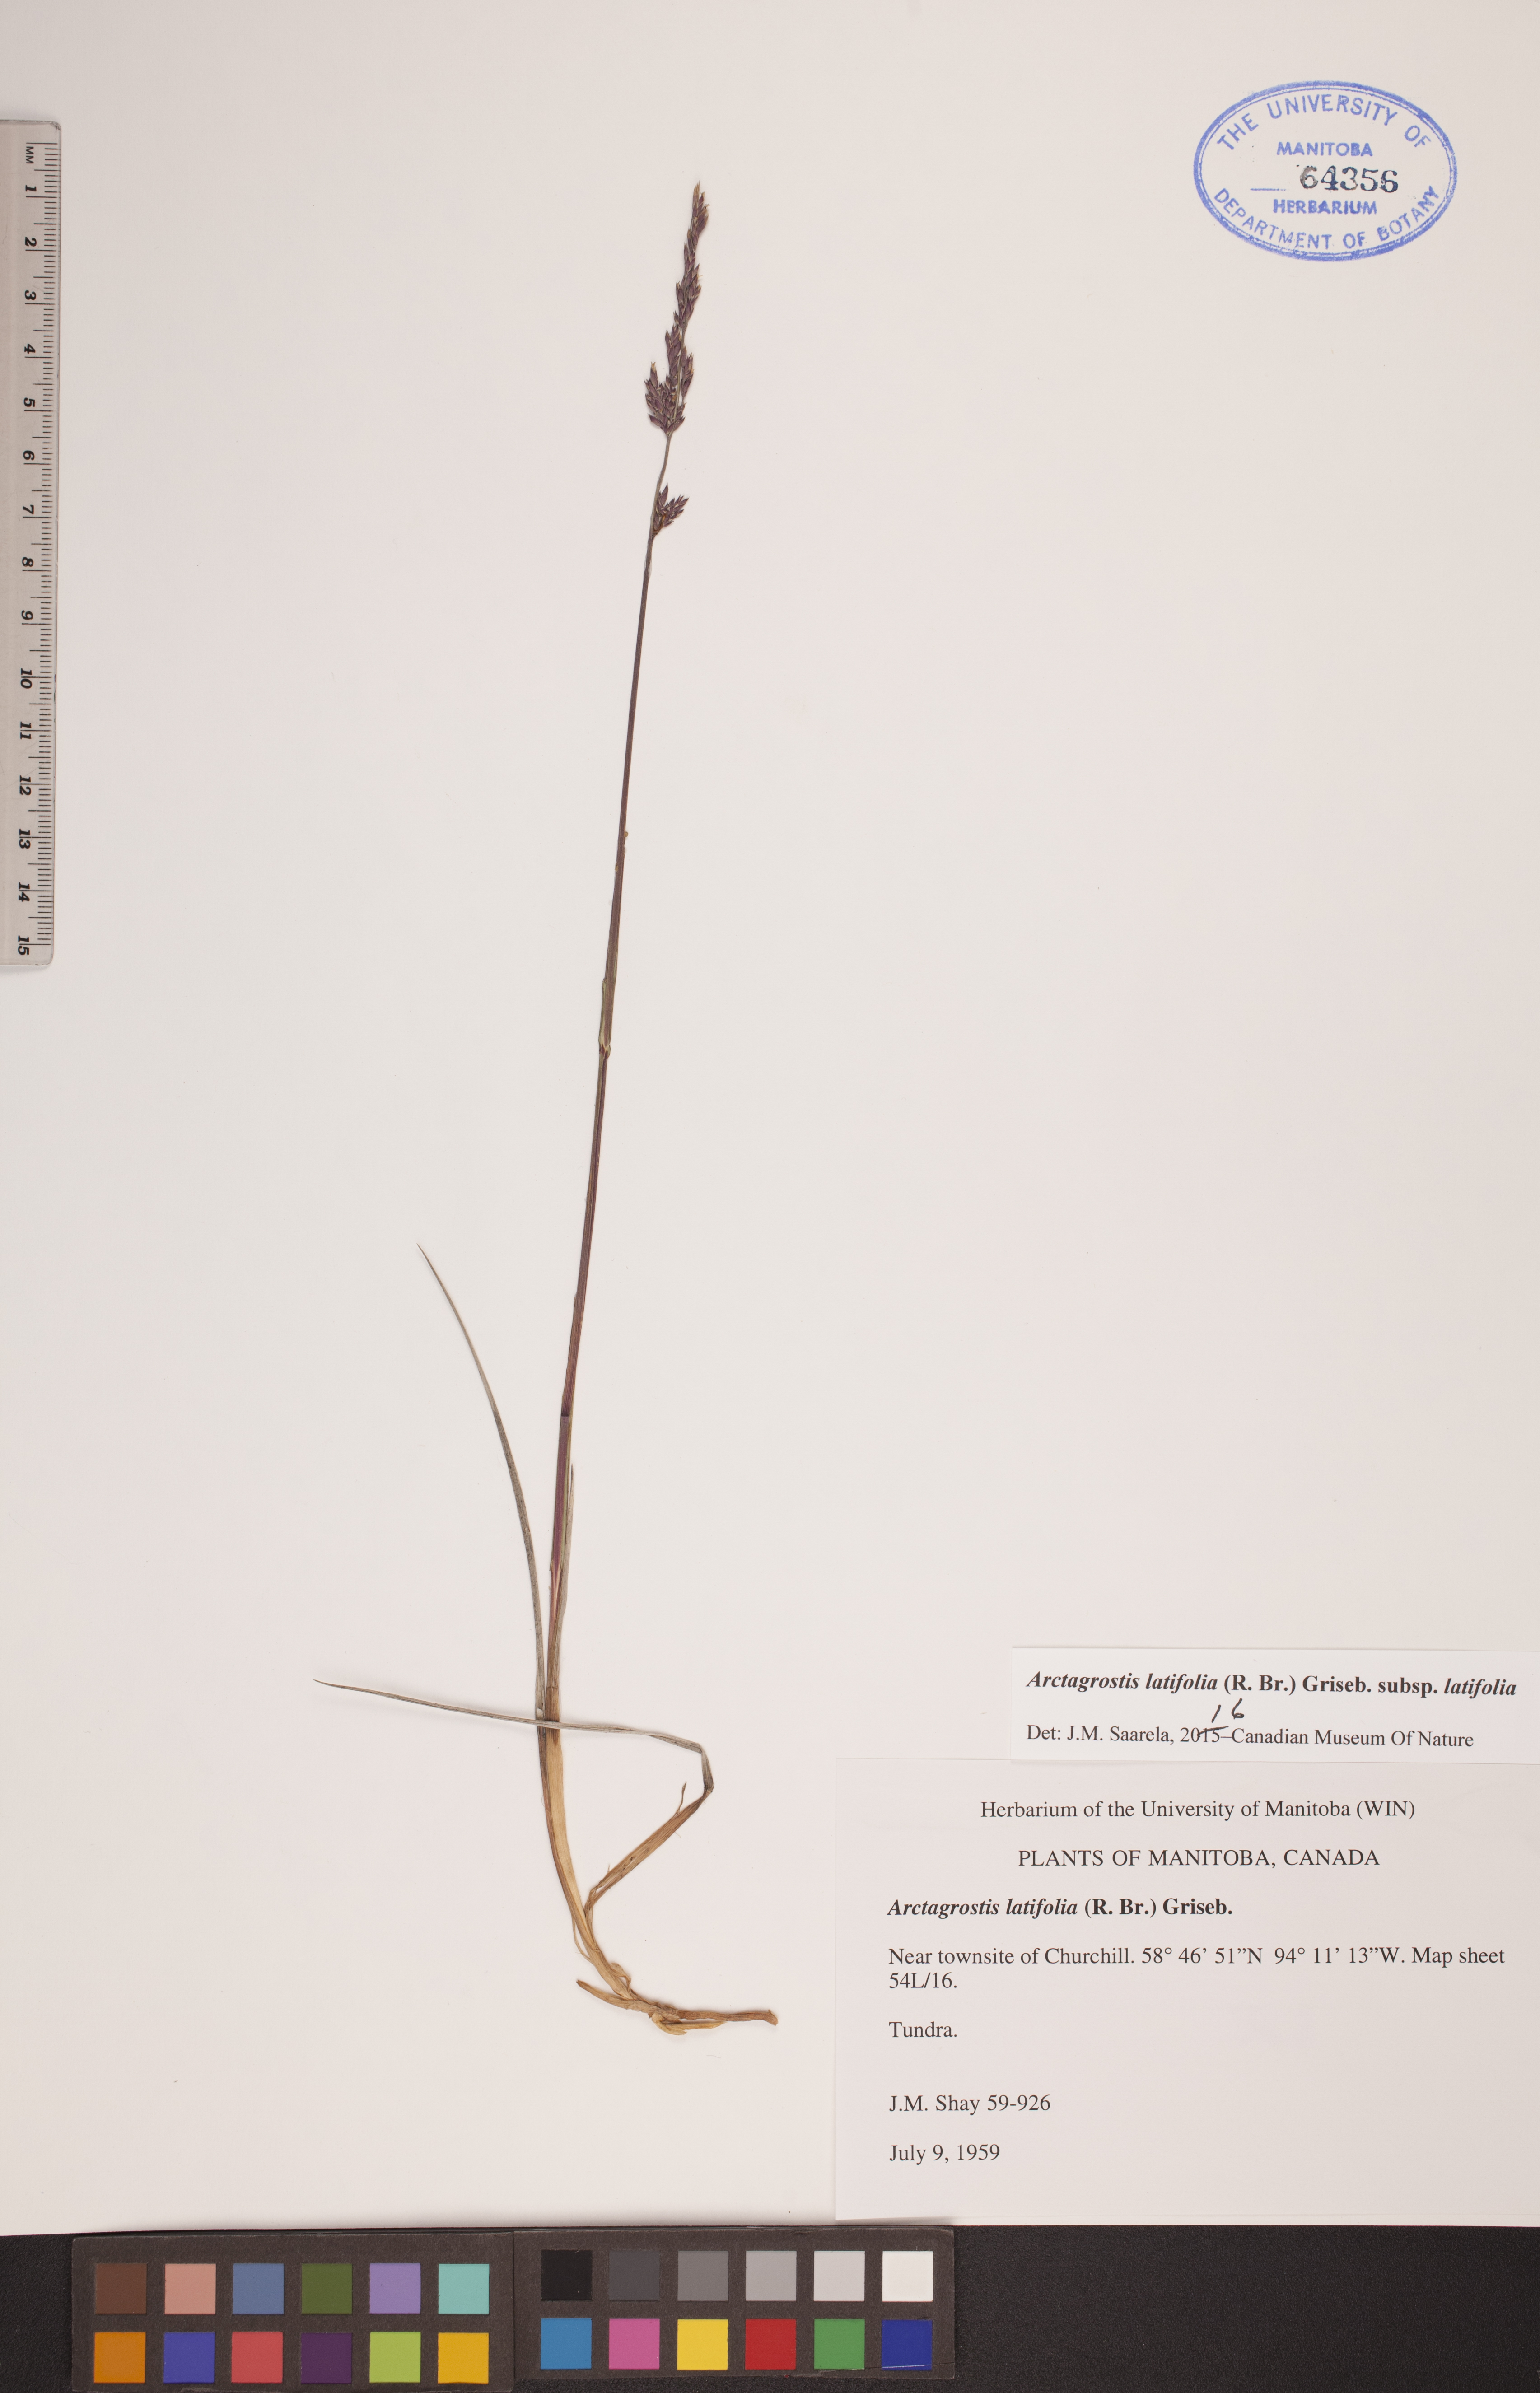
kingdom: Plantae
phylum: Tracheophyta
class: Liliopsida
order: Poales
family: Poaceae
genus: Arctagrostis
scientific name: Arctagrostis latifolia
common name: Arctic grass
